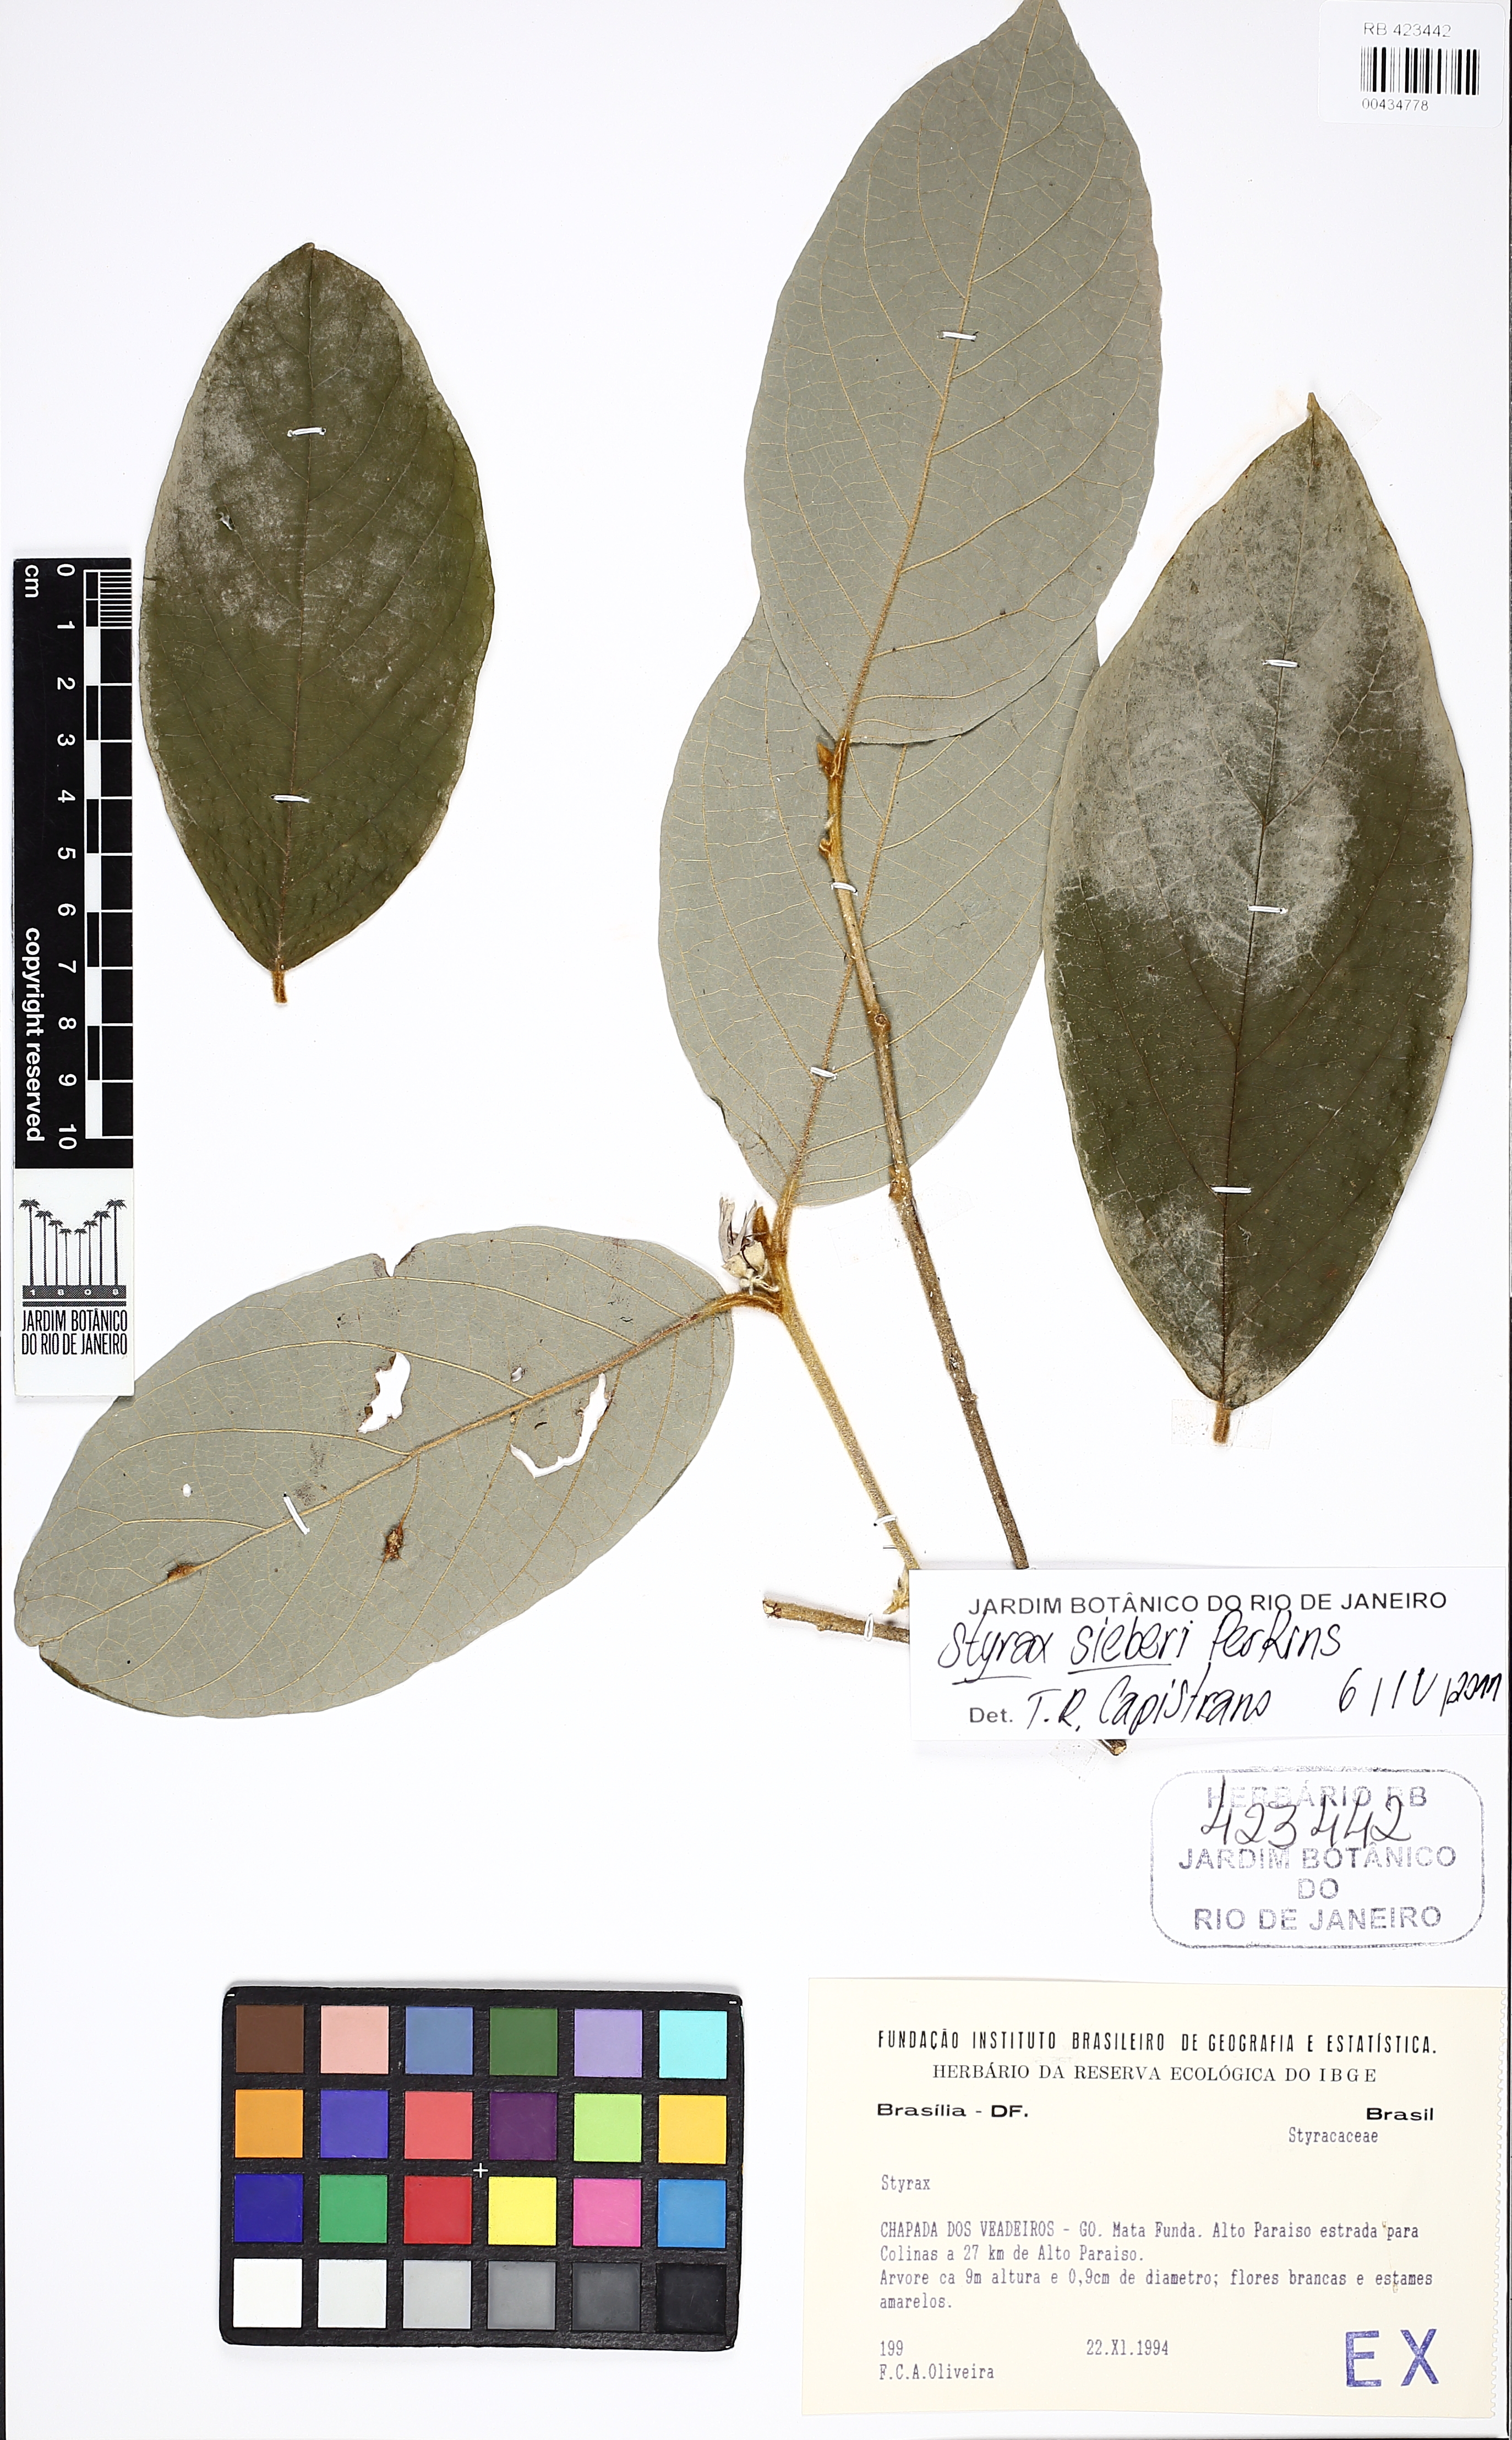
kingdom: Plantae
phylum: Tracheophyta
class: Magnoliopsida
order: Ericales
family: Styracaceae
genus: Styrax
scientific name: Styrax sieberi
